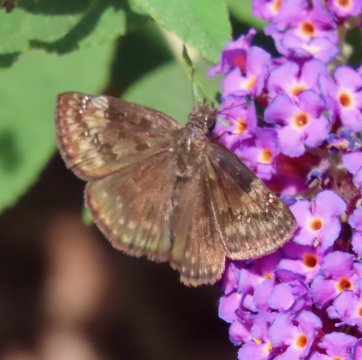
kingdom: Animalia
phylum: Arthropoda
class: Insecta
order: Lepidoptera
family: Hesperiidae
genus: Gesta
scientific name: Gesta
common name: Wild Indigo Duskywing
